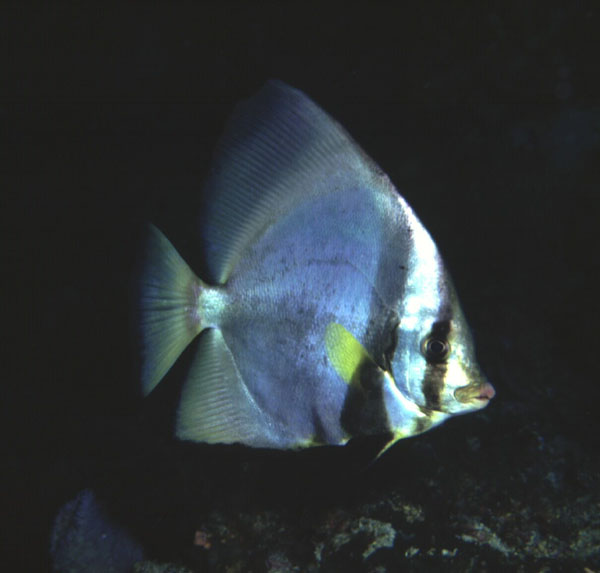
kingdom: Animalia
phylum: Chordata
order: Perciformes
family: Ephippidae
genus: Platax
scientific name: Platax pinnatus
